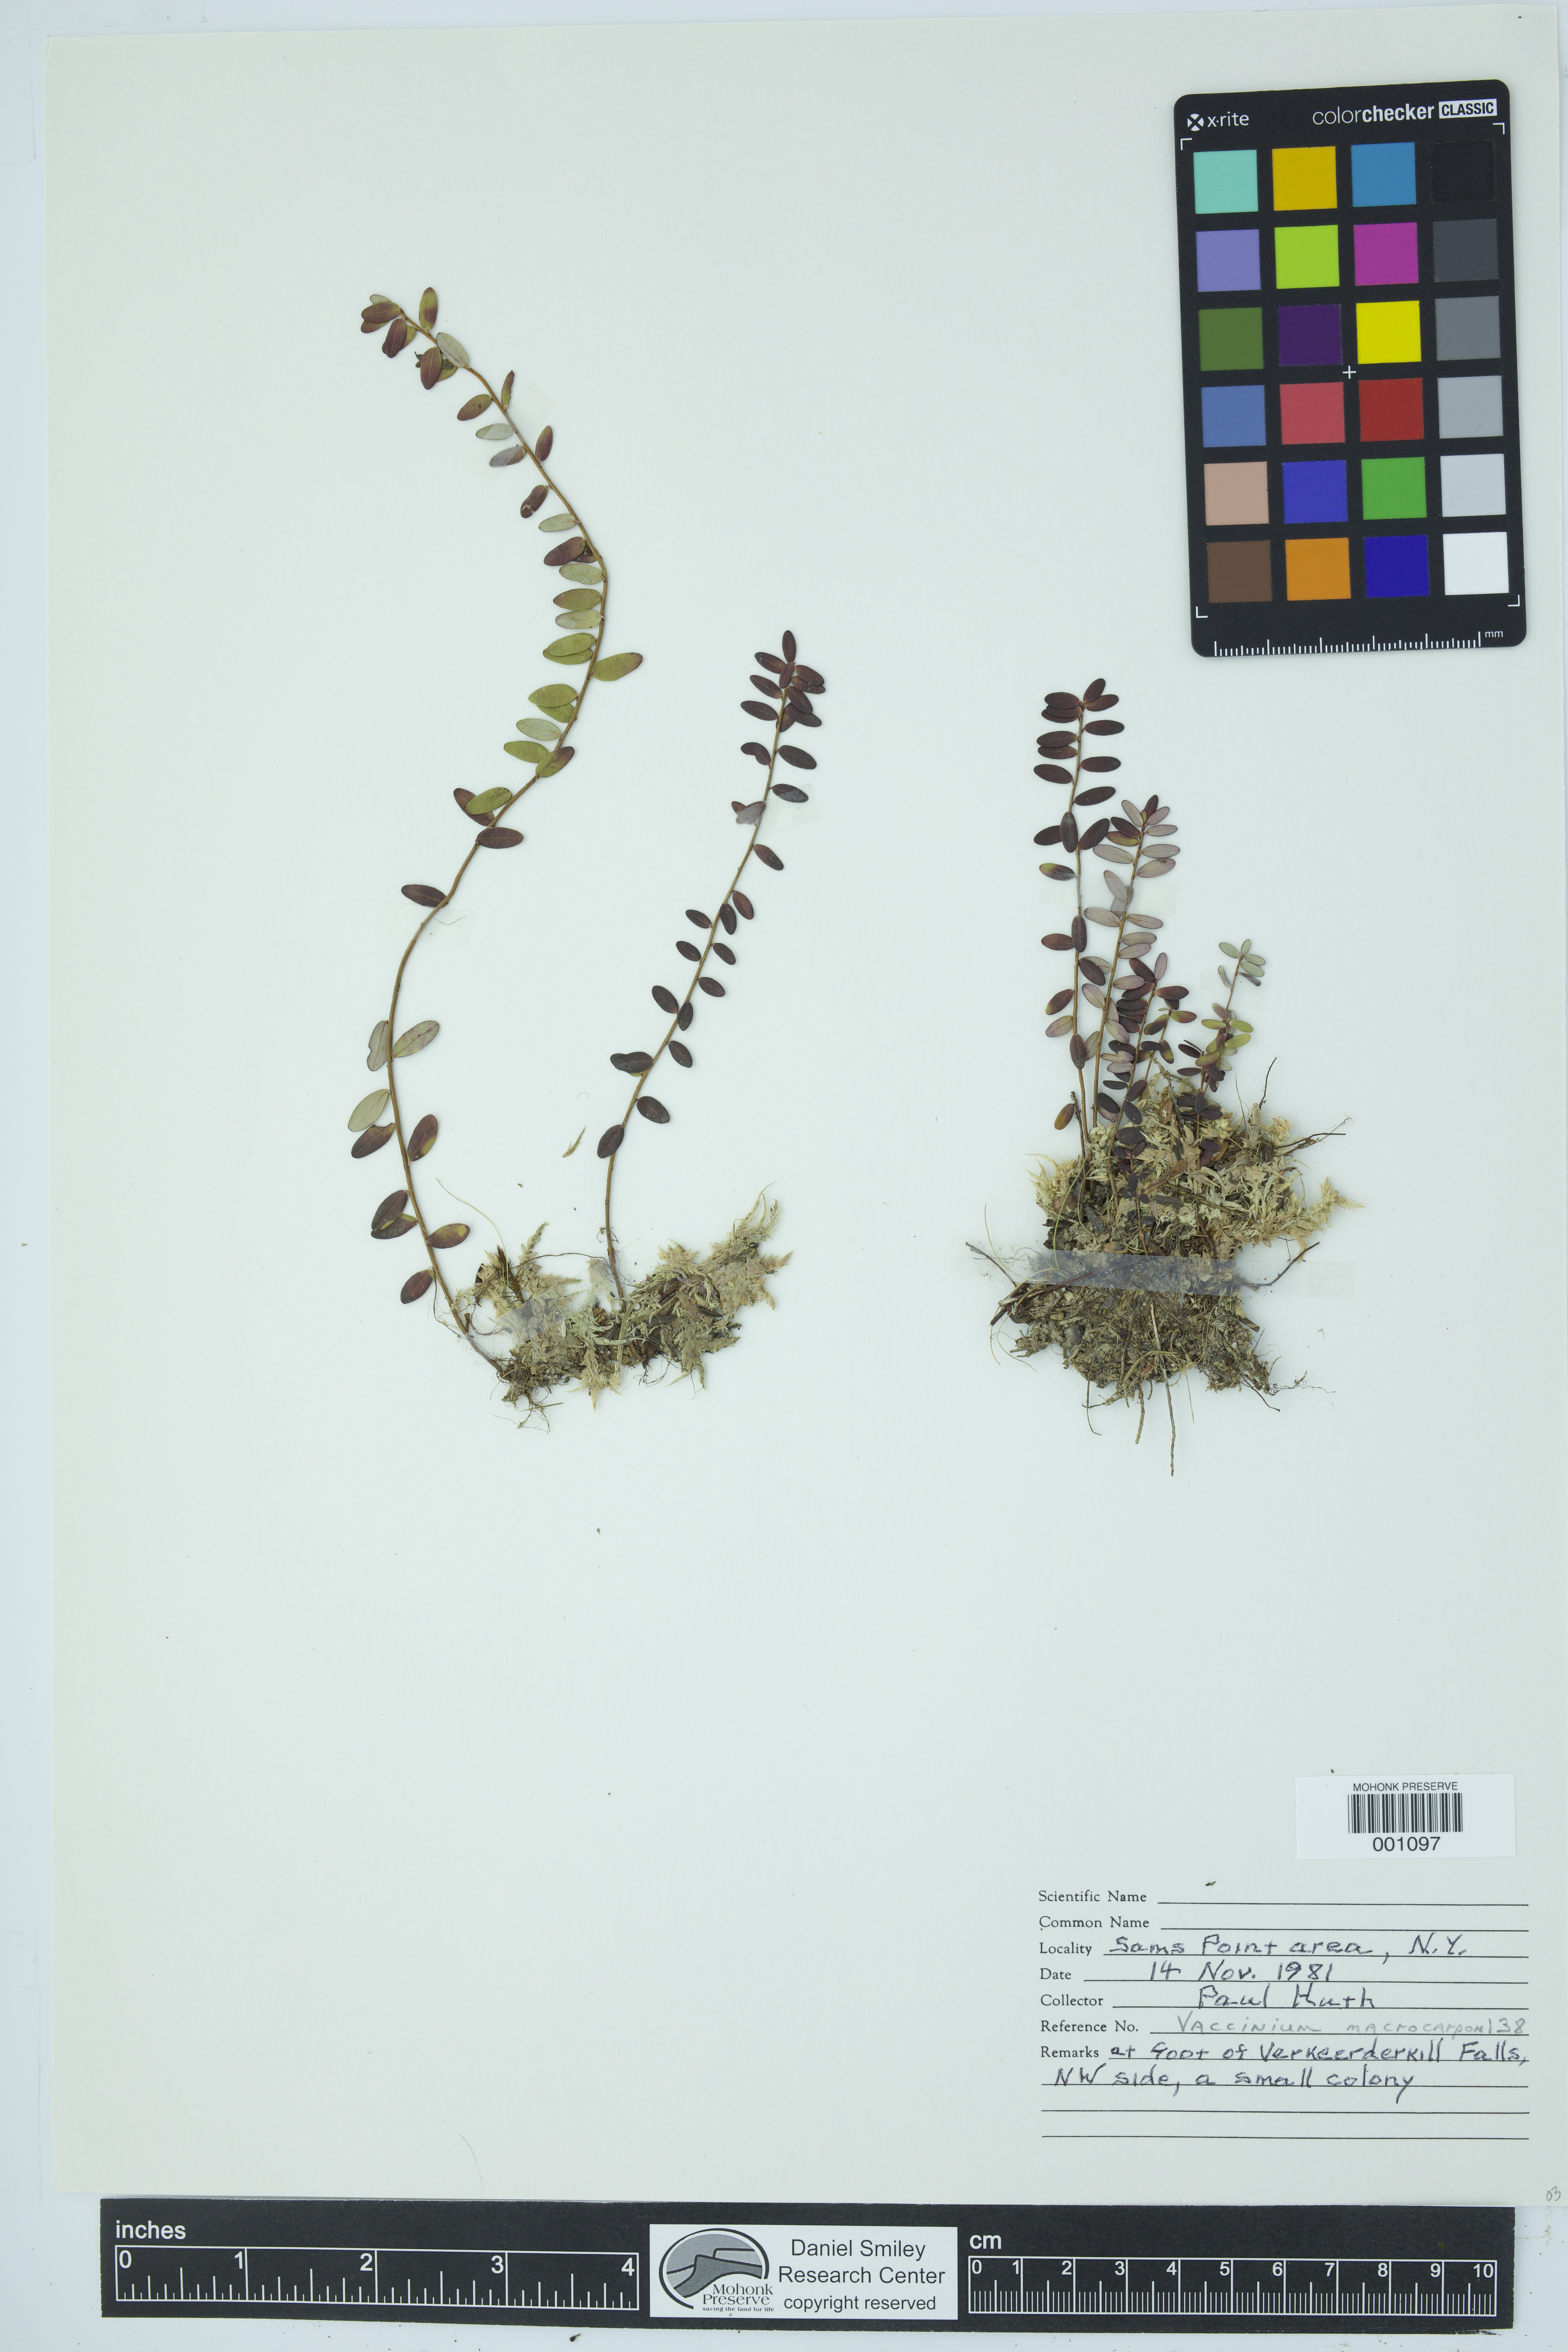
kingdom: Plantae
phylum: Tracheophyta
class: Magnoliopsida
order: Ericales
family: Ericaceae
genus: Vaccinium
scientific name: Vaccinium macrocarpon
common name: American cranberry
